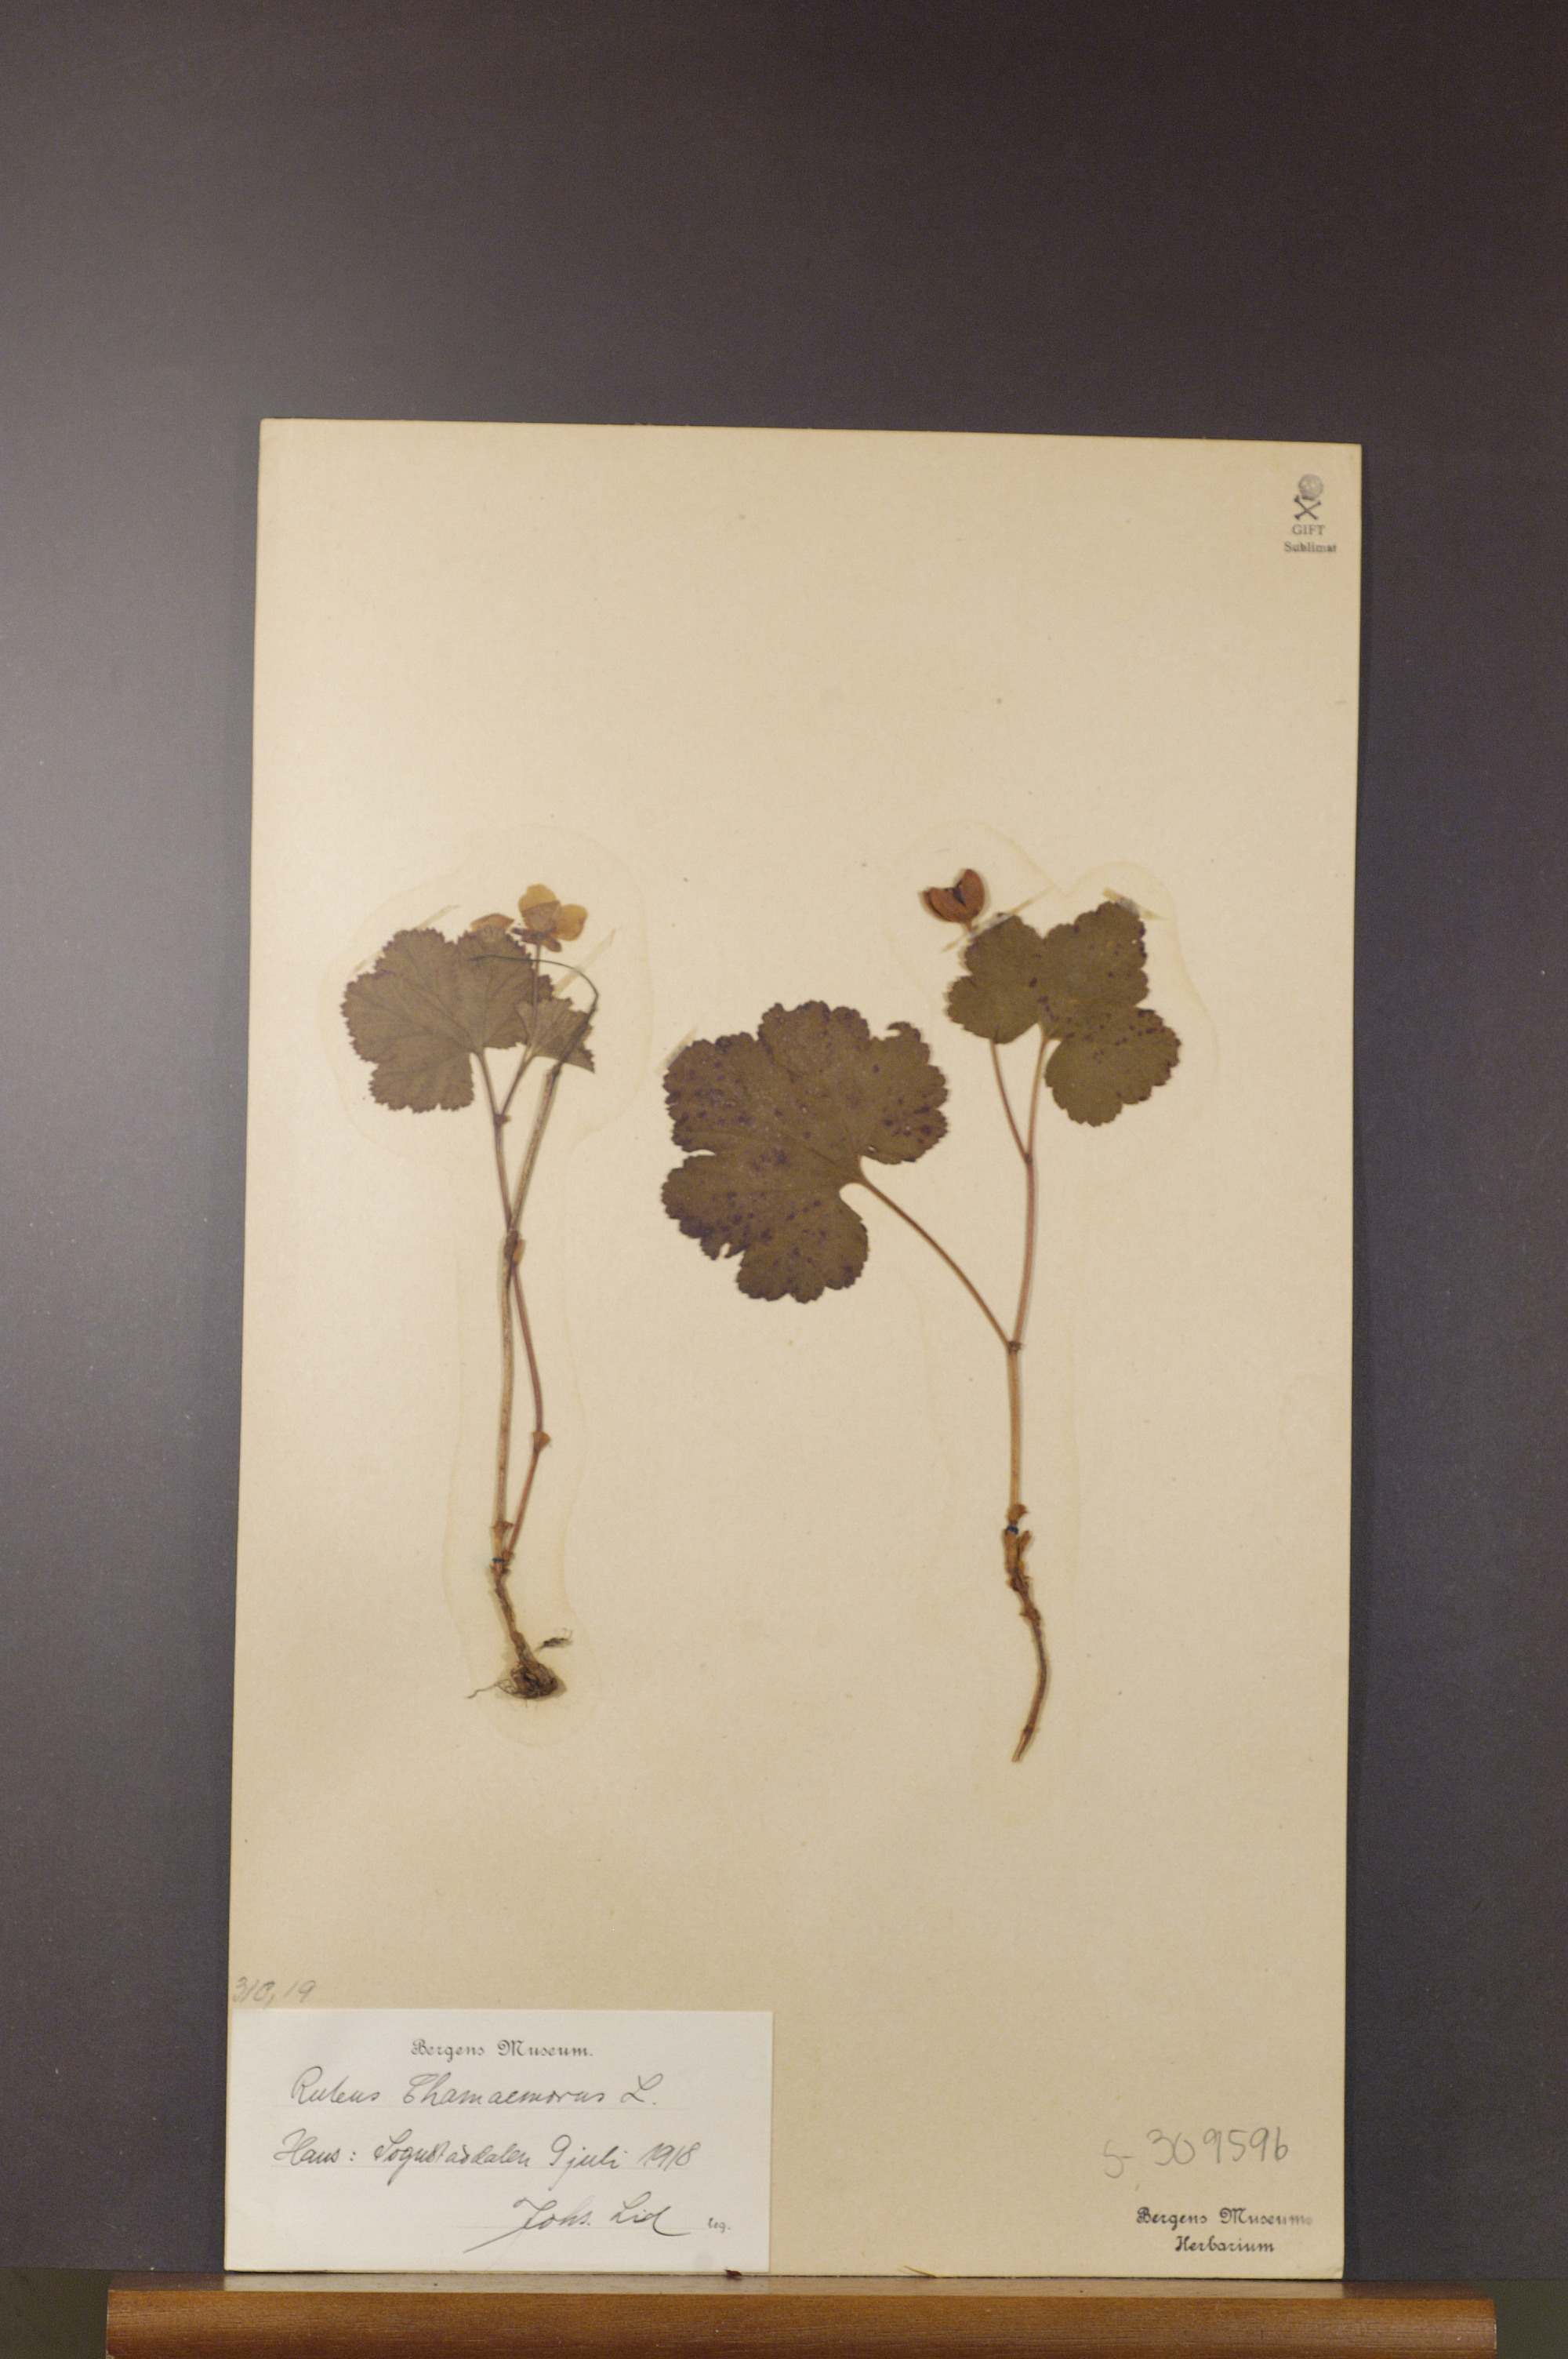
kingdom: Plantae
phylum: Tracheophyta
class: Magnoliopsida
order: Rosales
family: Rosaceae
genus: Rubus
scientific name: Rubus chamaemorus
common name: Cloudberry
